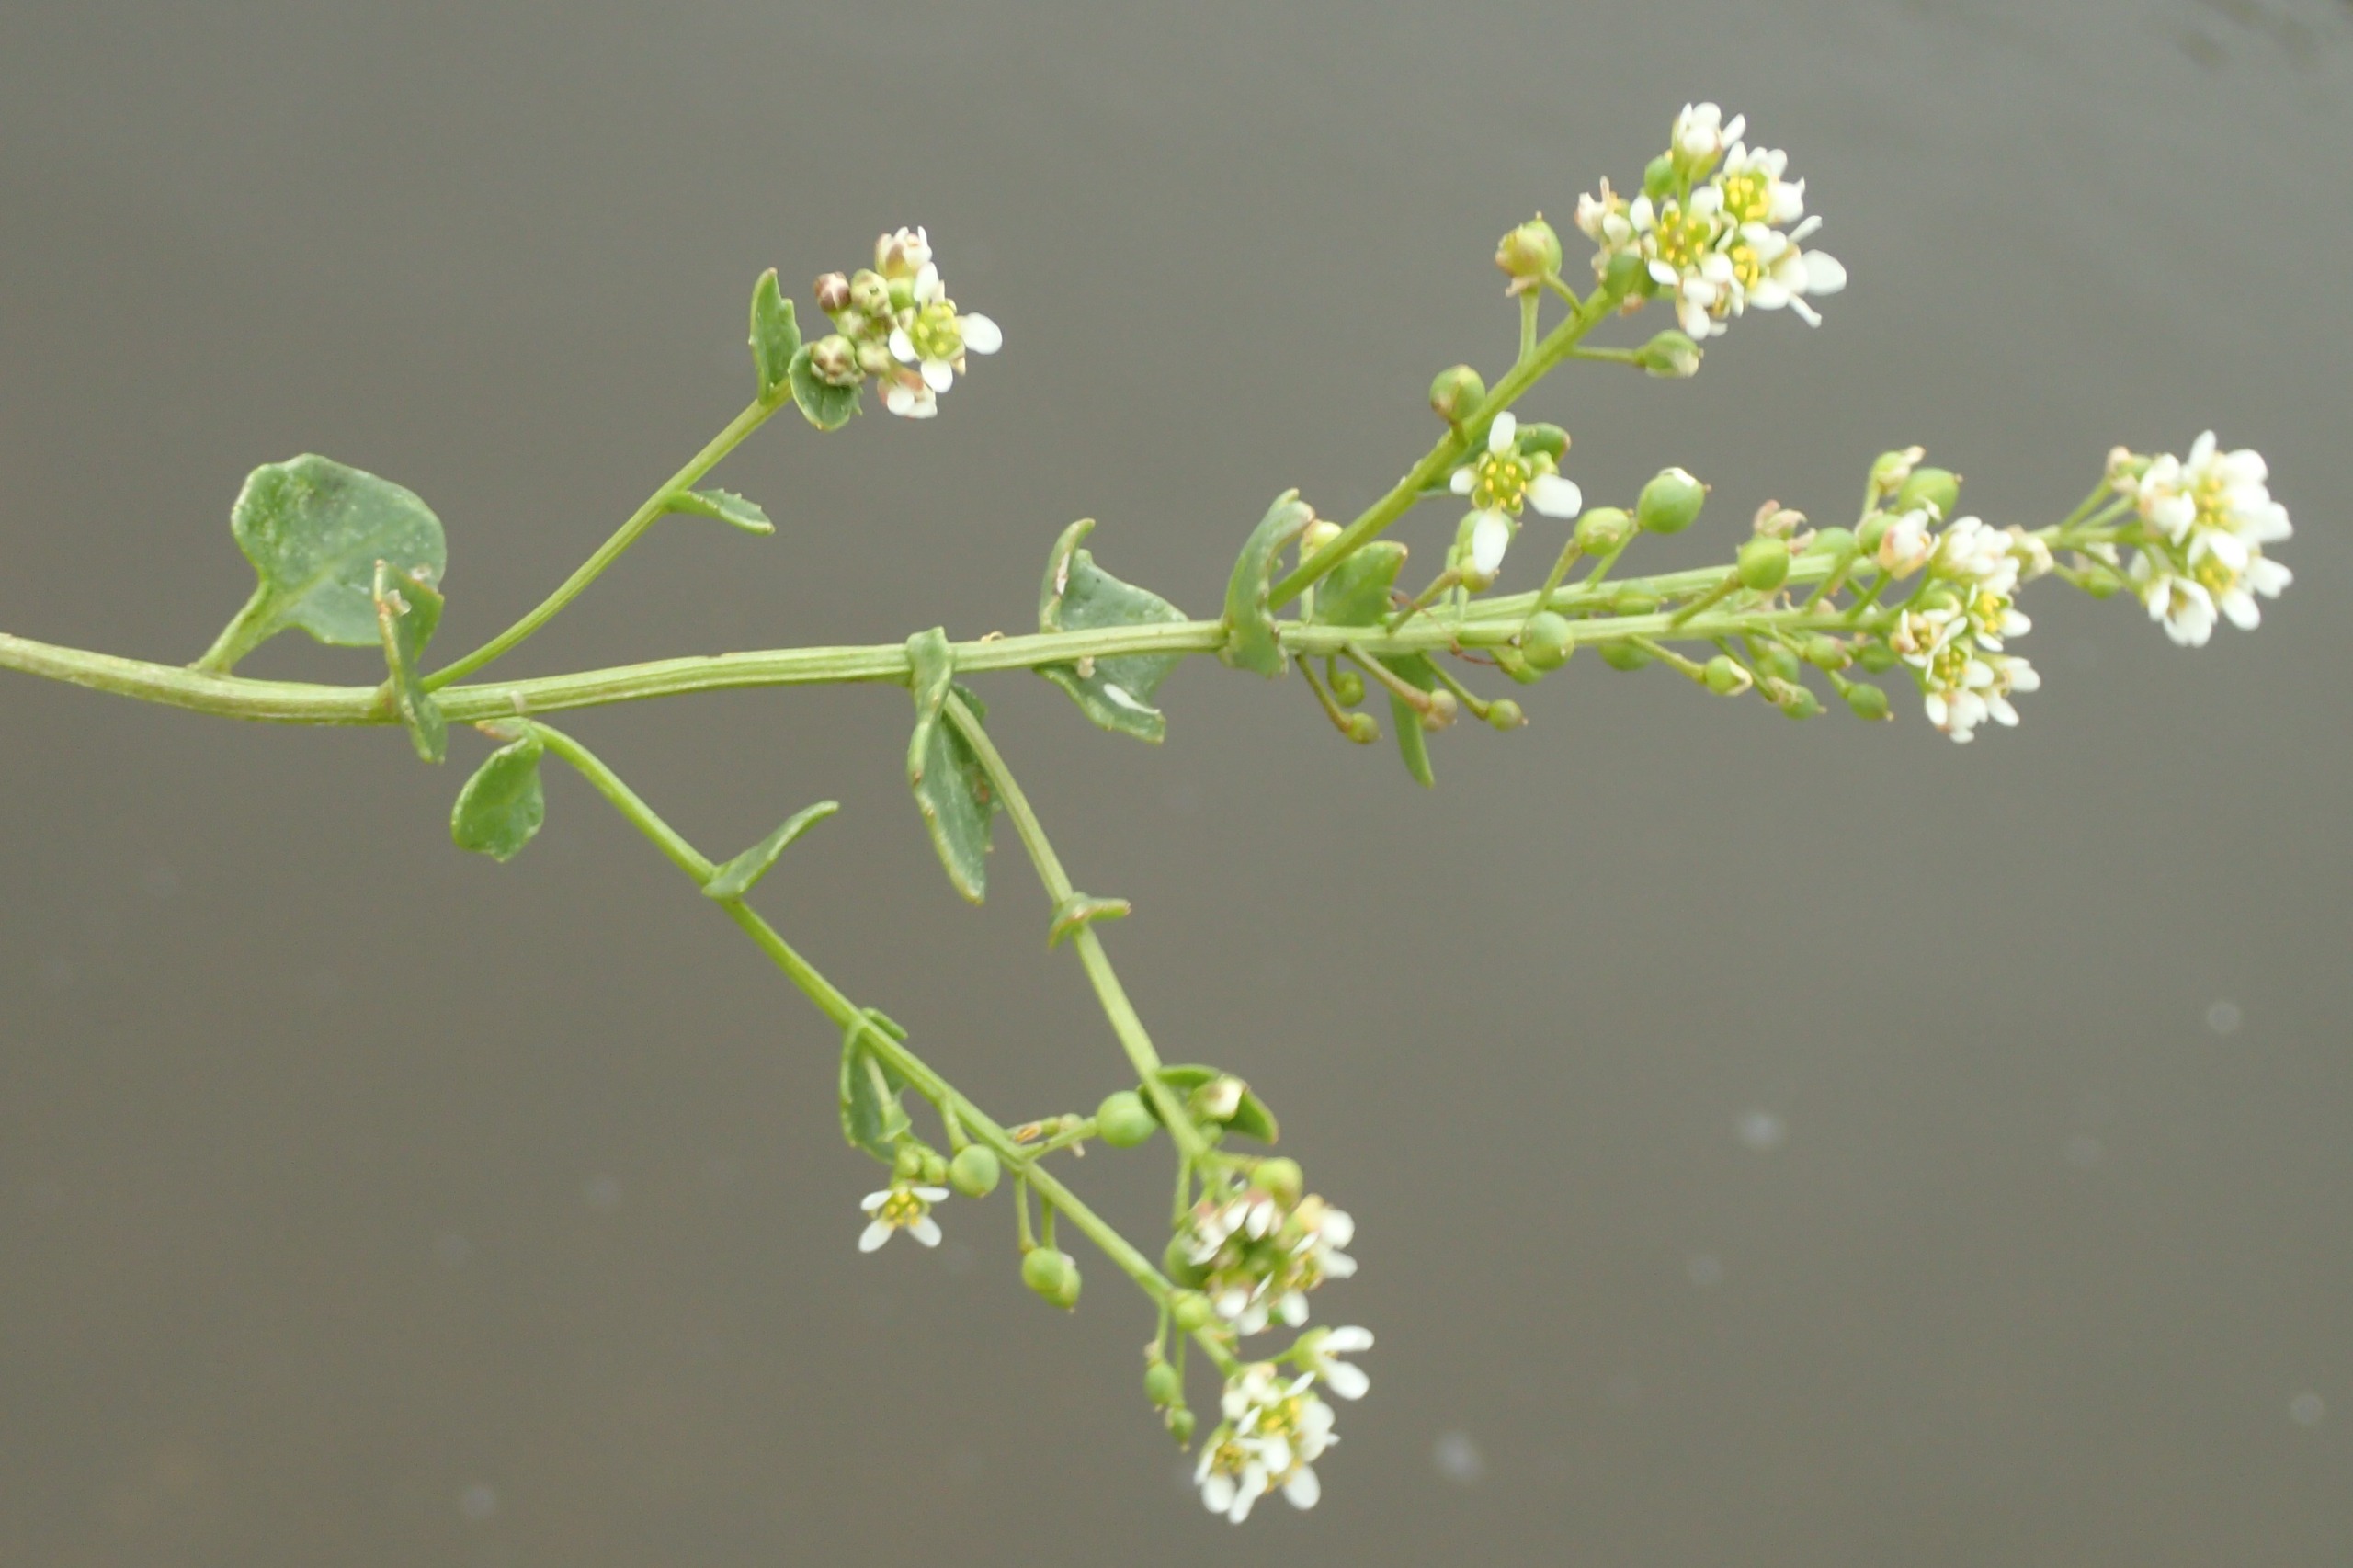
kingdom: Plantae
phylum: Tracheophyta
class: Magnoliopsida
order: Brassicales
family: Brassicaceae
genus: Cochlearia
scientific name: Cochlearia officinalis
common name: Læge-kokleare
